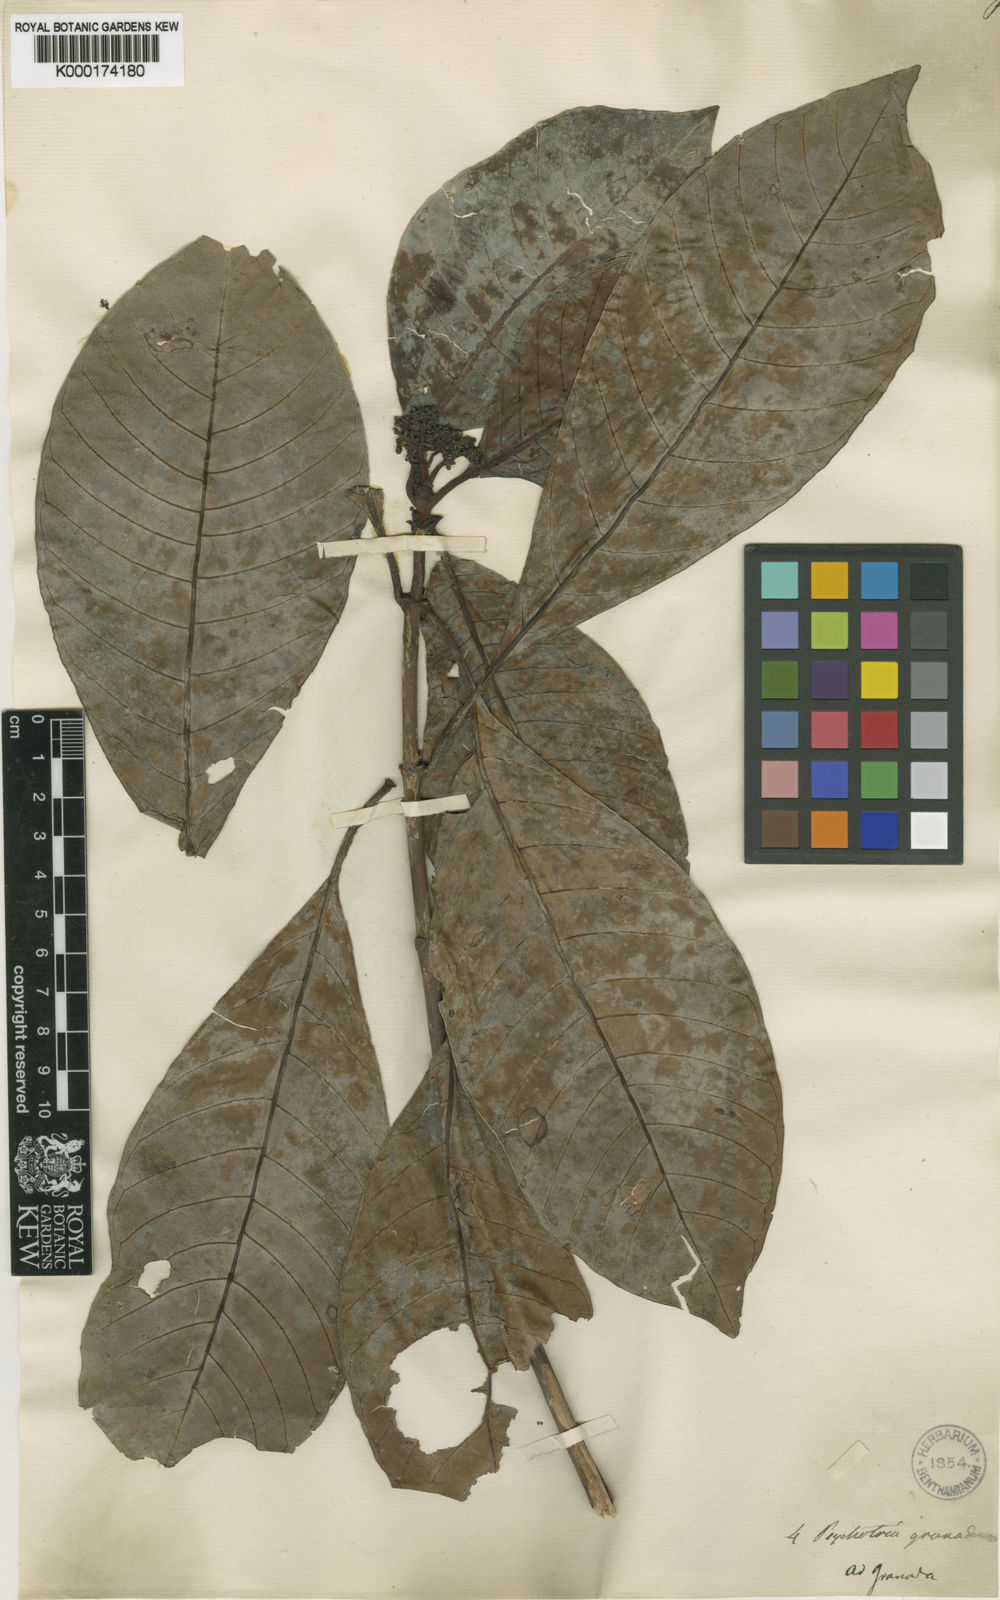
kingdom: Plantae
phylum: Tracheophyta
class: Magnoliopsida
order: Gentianales
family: Rubiaceae
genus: Psychotria
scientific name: Psychotria nervosa
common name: Bastard cankerberry
